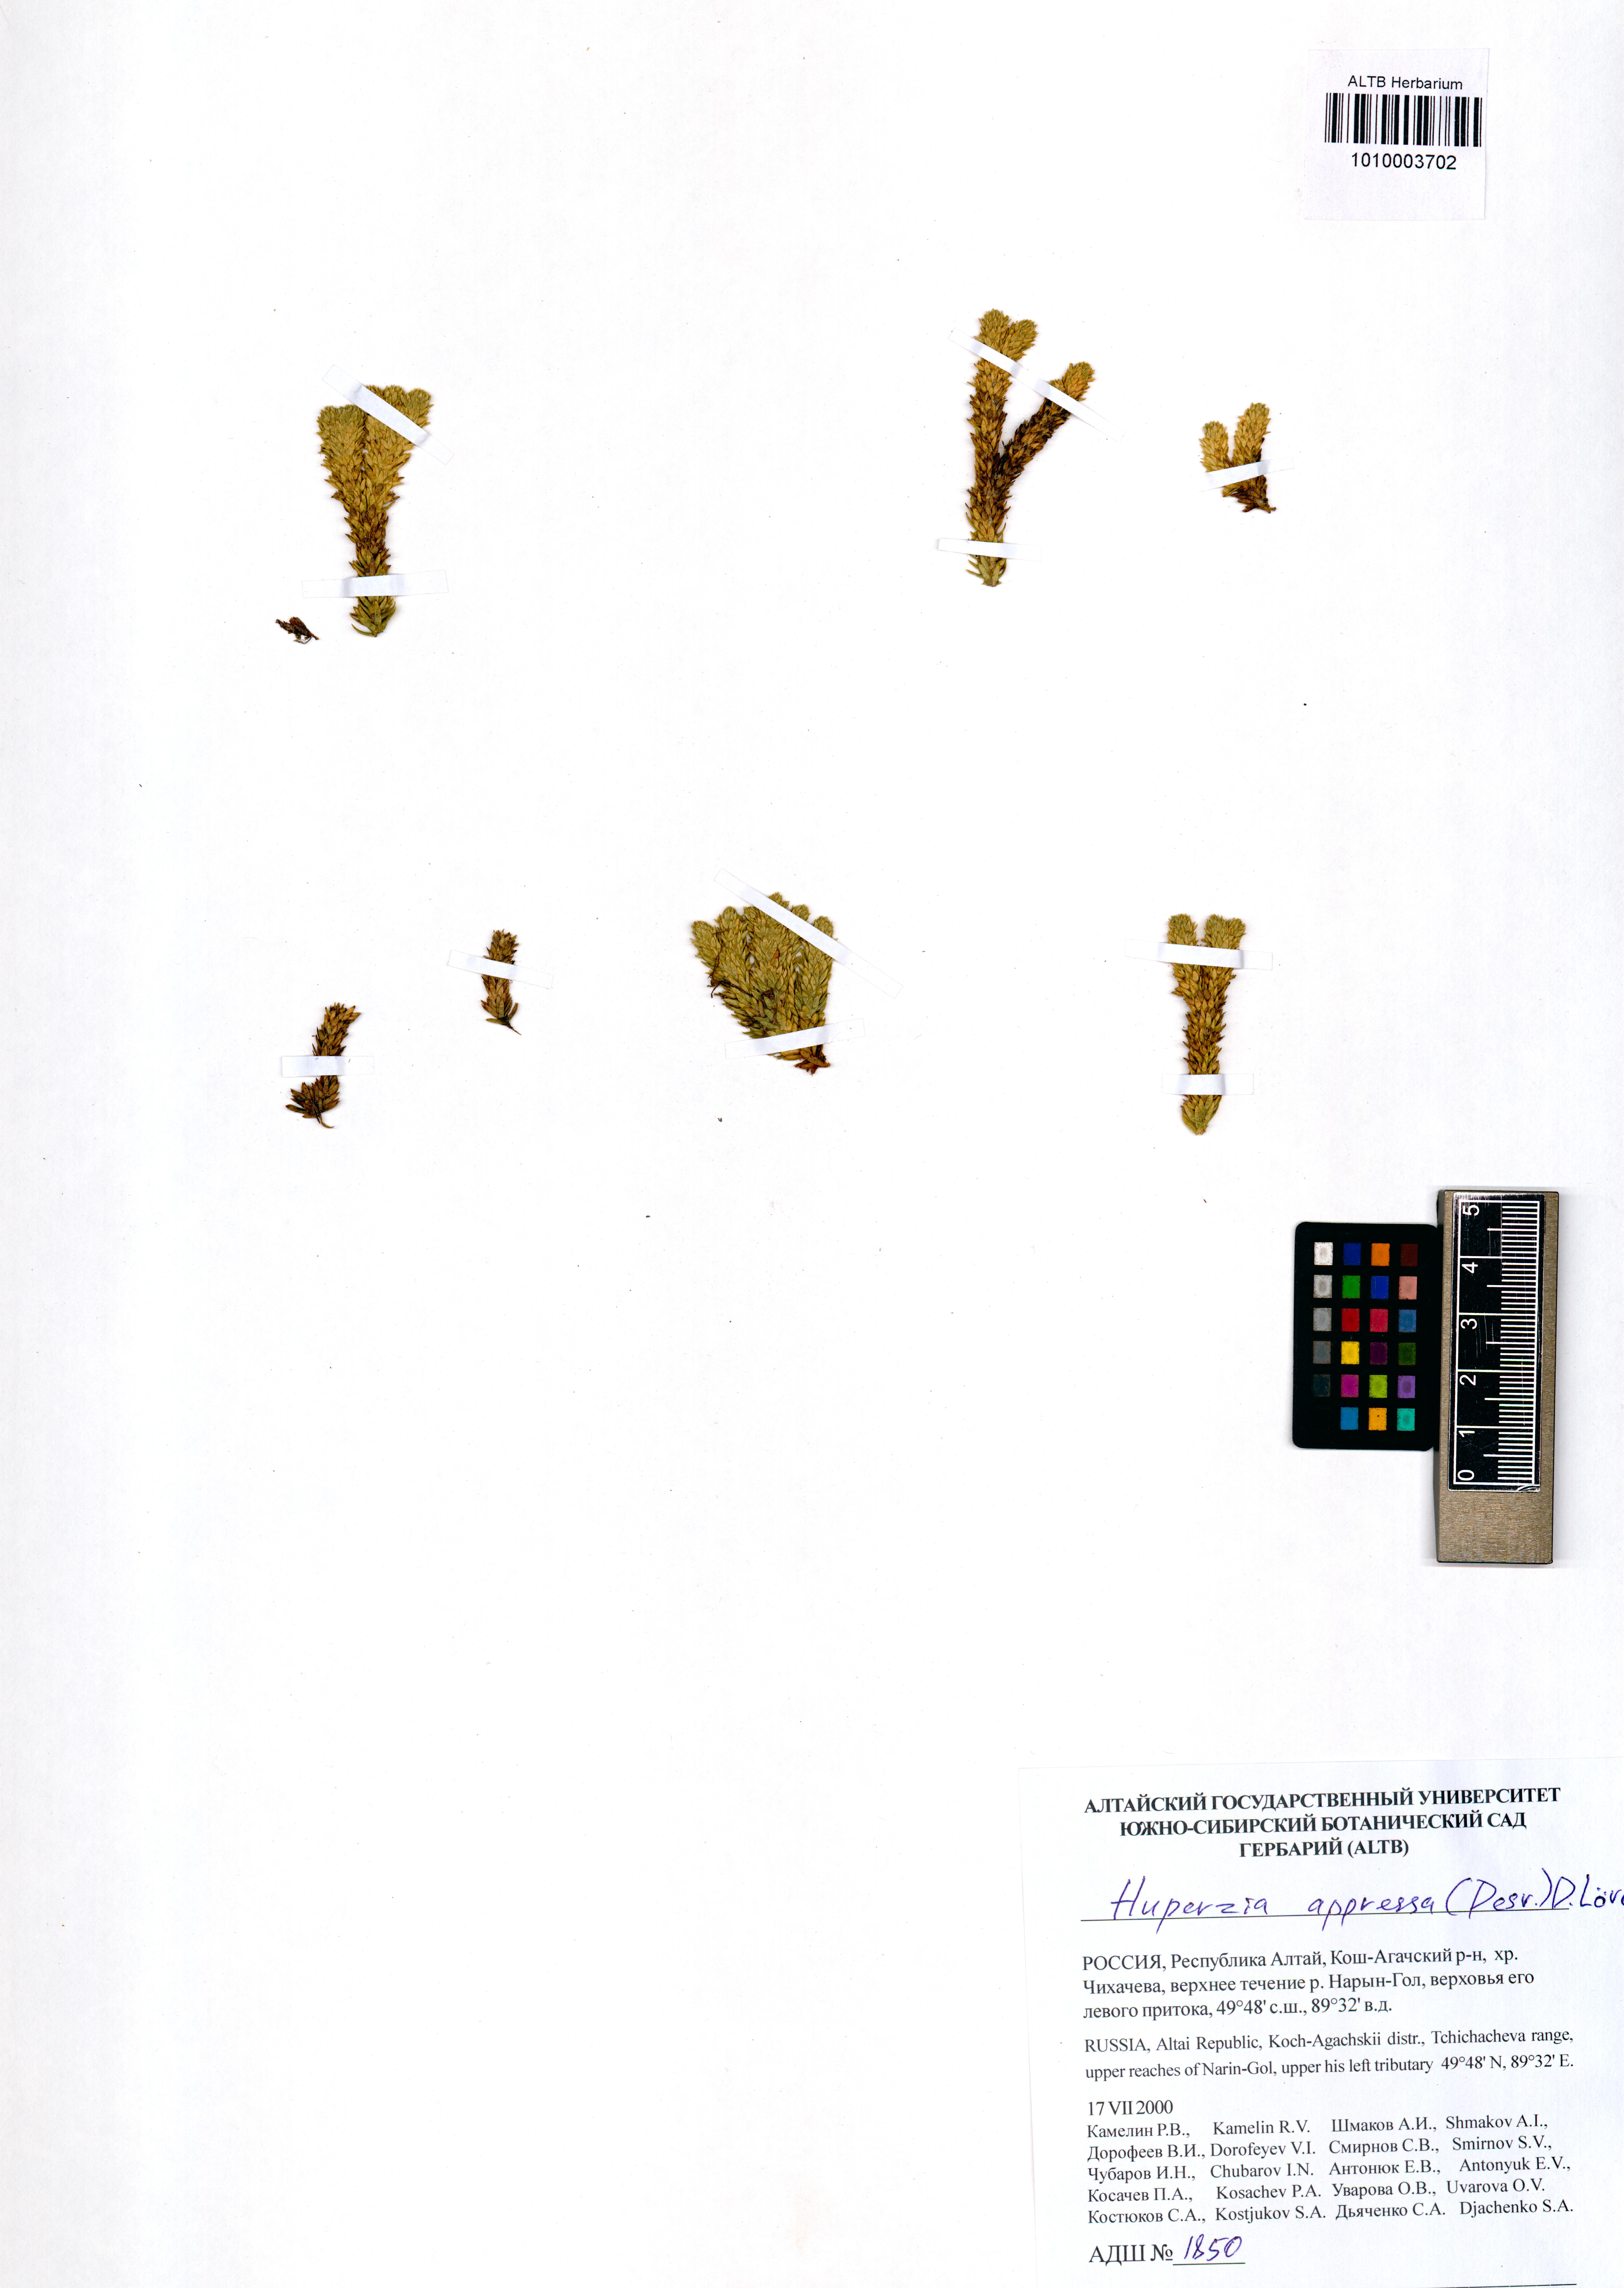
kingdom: Plantae
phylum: Tracheophyta
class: Lycopodiopsida
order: Lycopodiales
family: Lycopodiaceae
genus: Huperzia
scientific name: Huperzia selago
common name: Northern firmoss
